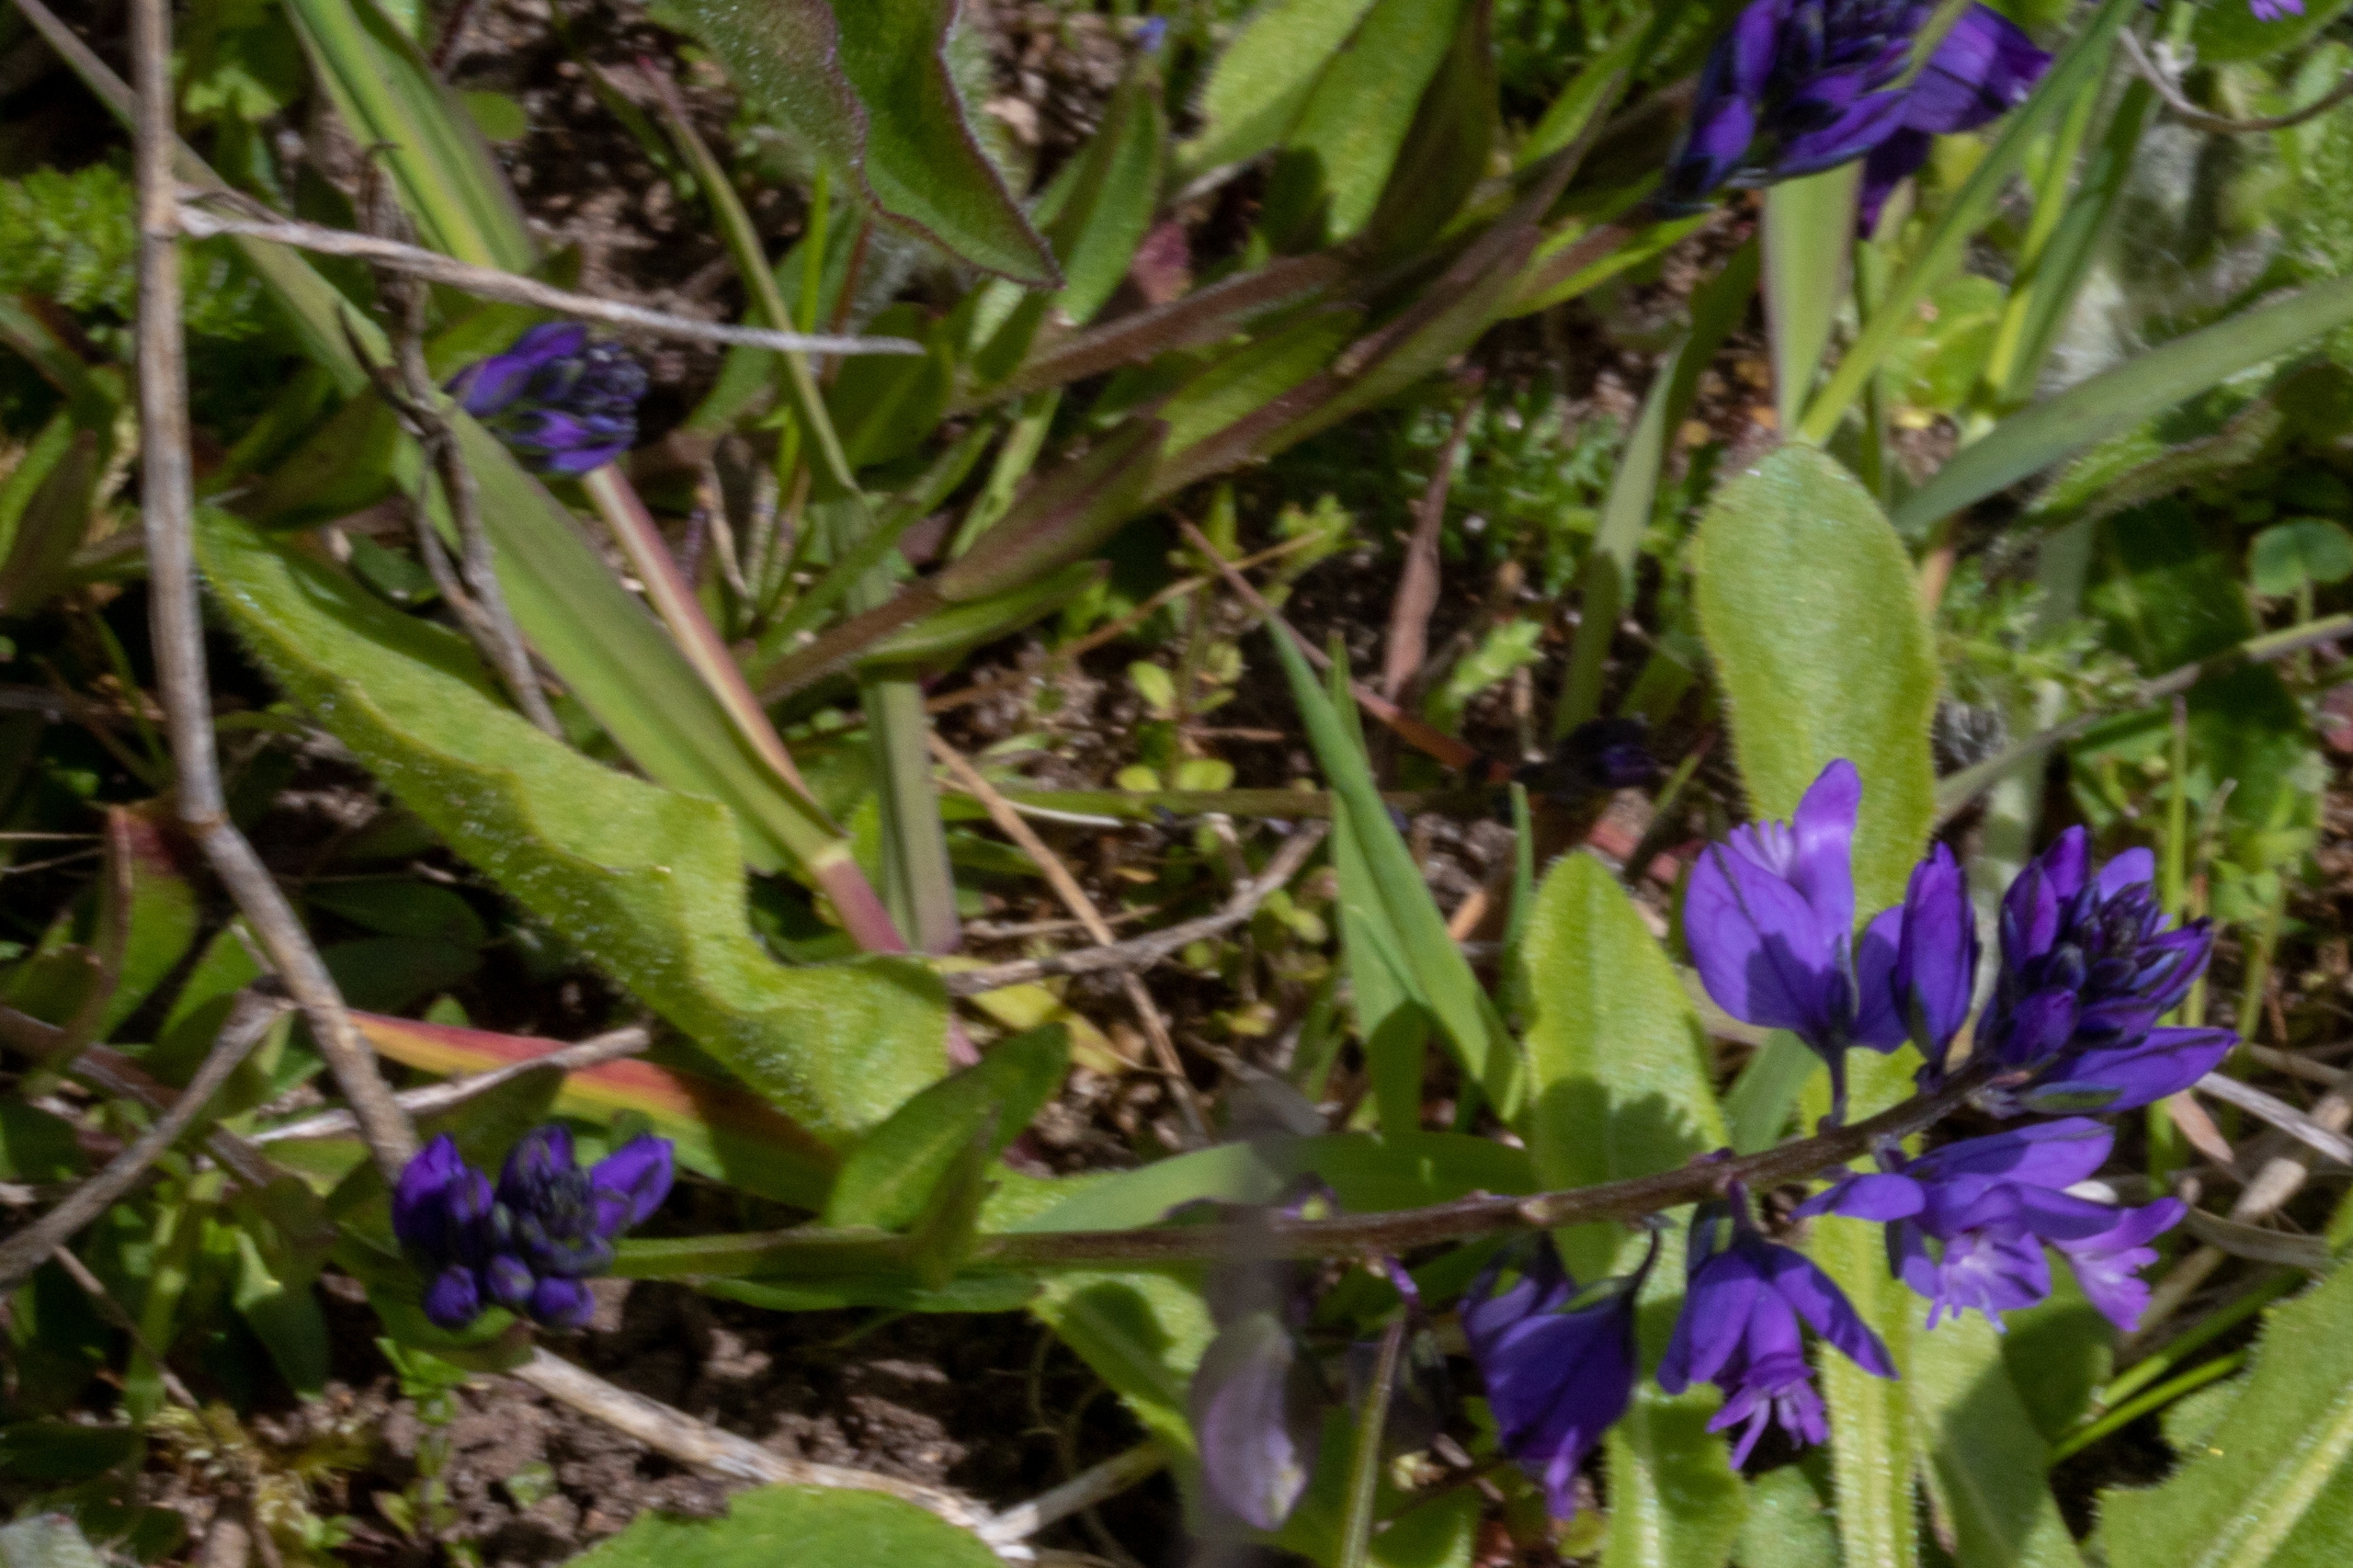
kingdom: Plantae
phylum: Tracheophyta
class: Magnoliopsida
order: Fabales
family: Polygalaceae
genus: Polygala
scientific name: Polygala vulgaris
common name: Almindelig mælkeurt
